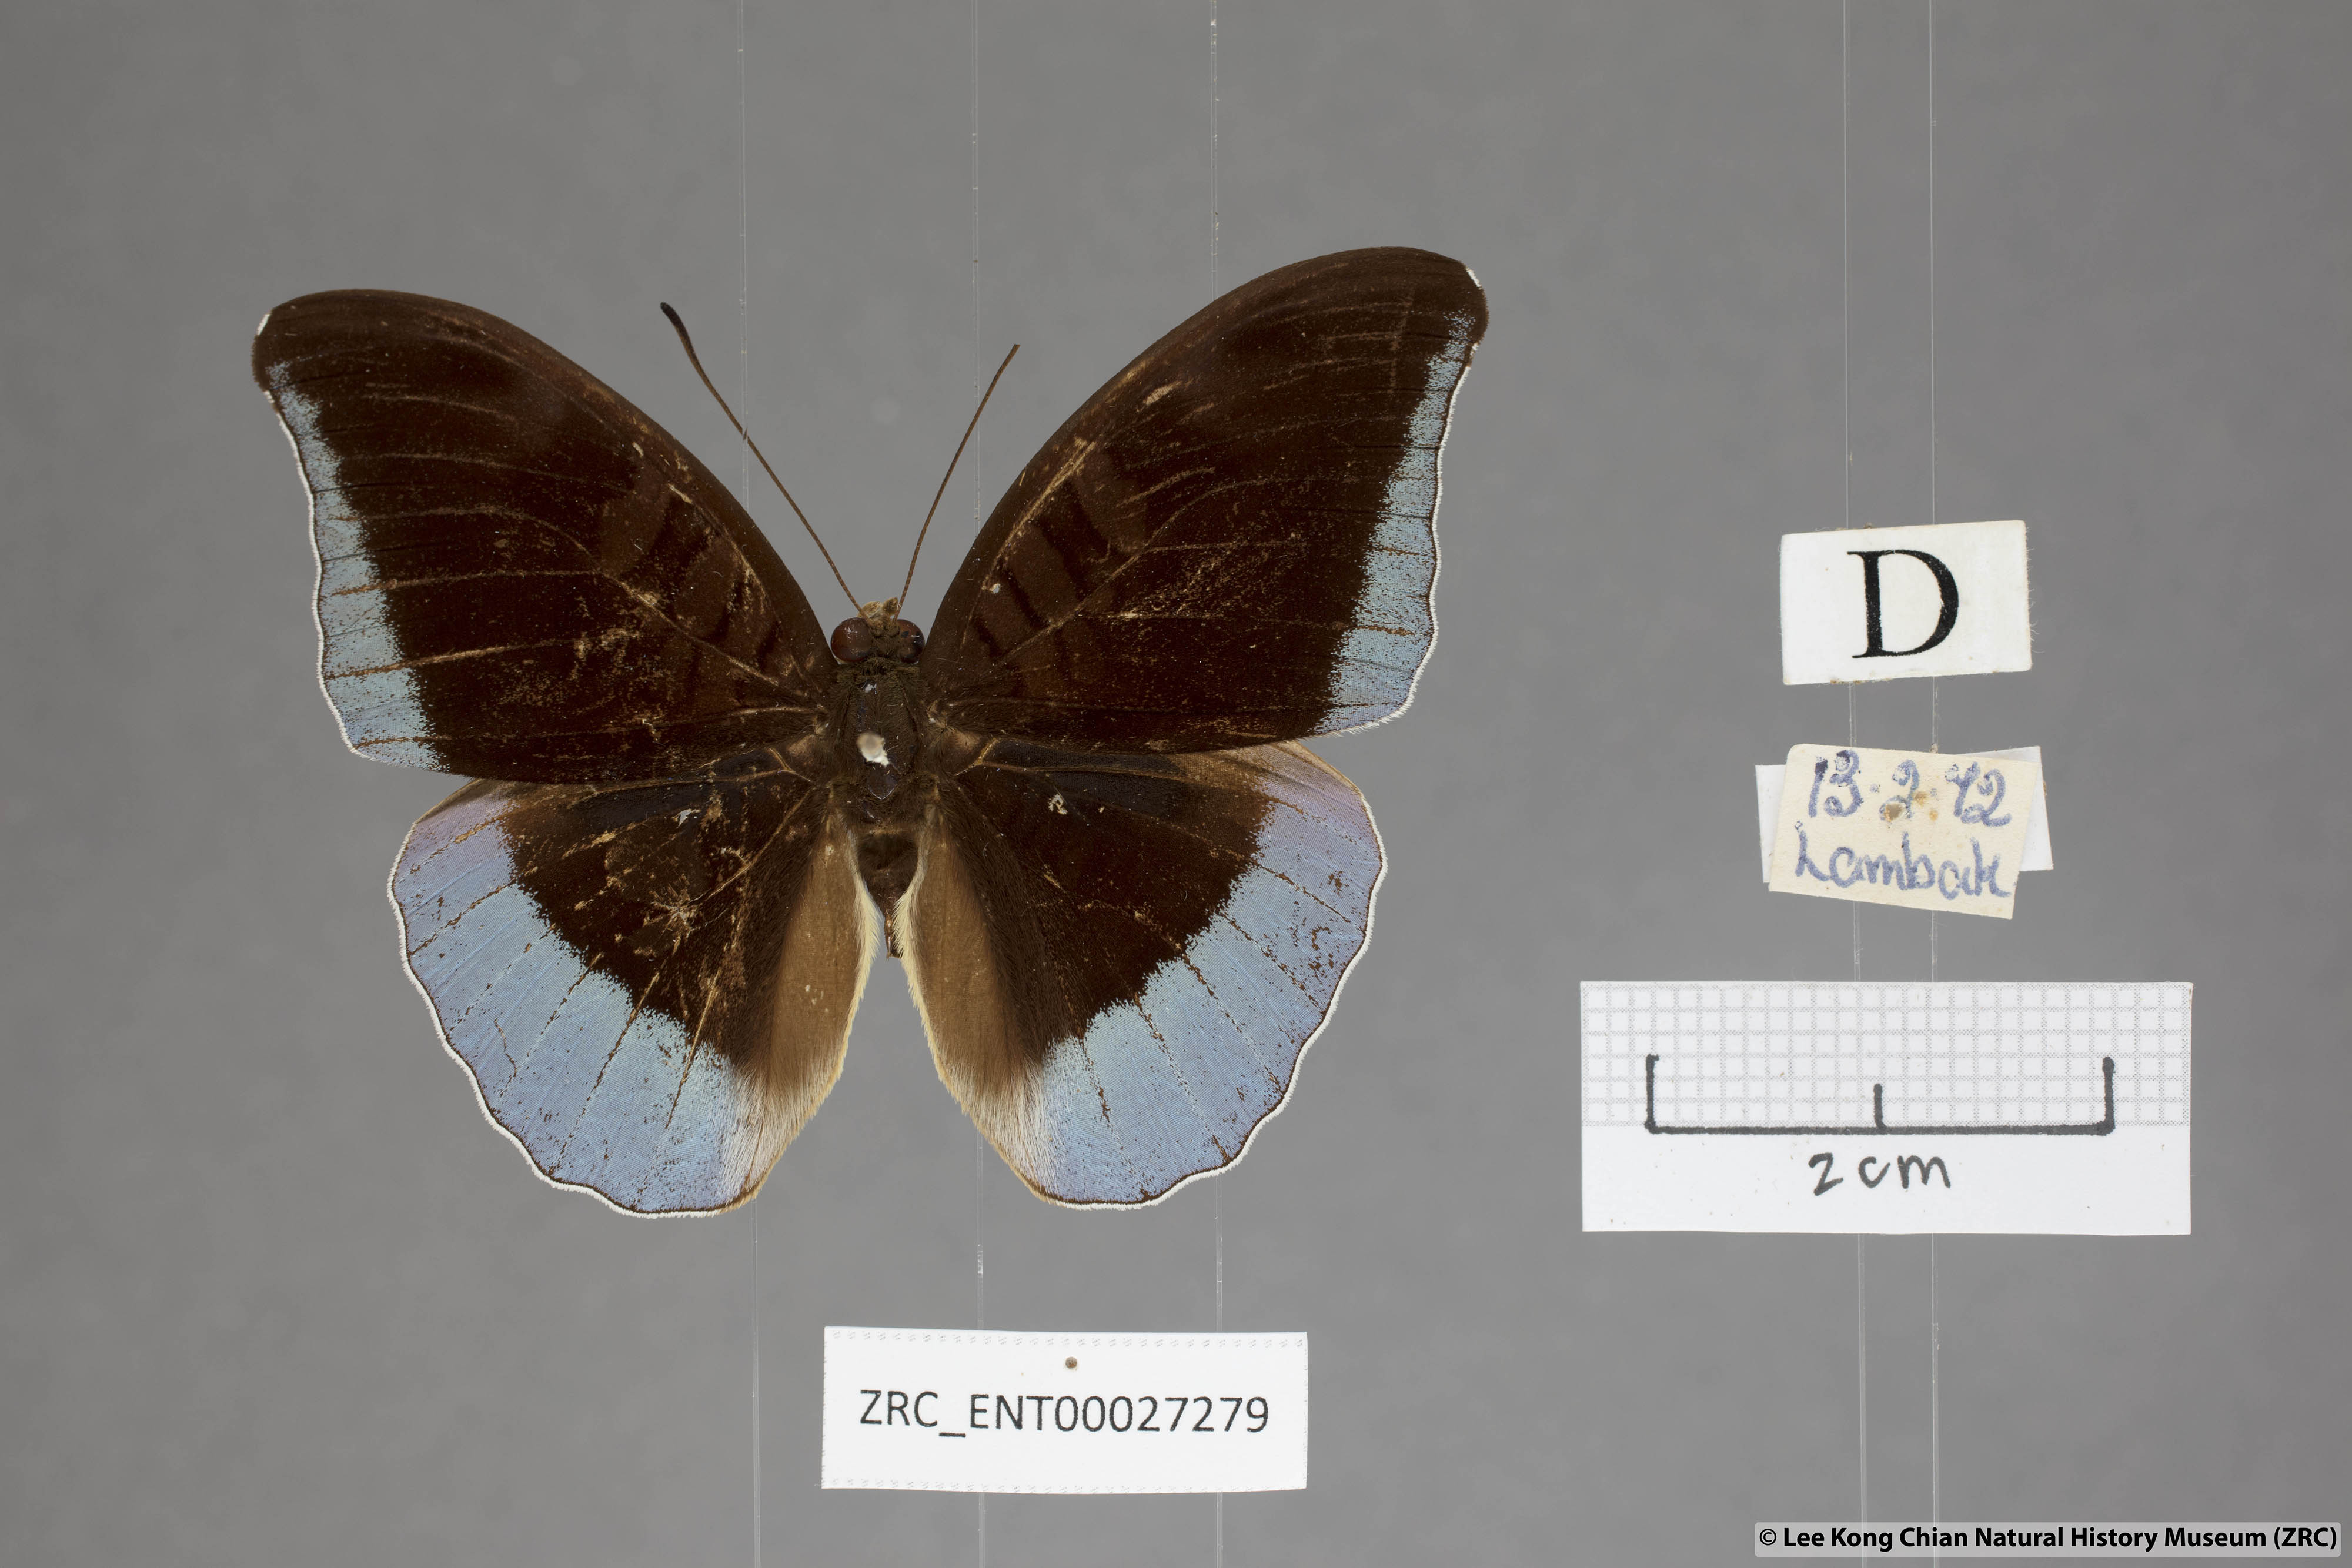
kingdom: Animalia
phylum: Arthropoda
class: Insecta
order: Lepidoptera
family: Nymphalidae
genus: Tanaecia
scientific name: Tanaecia godartii
